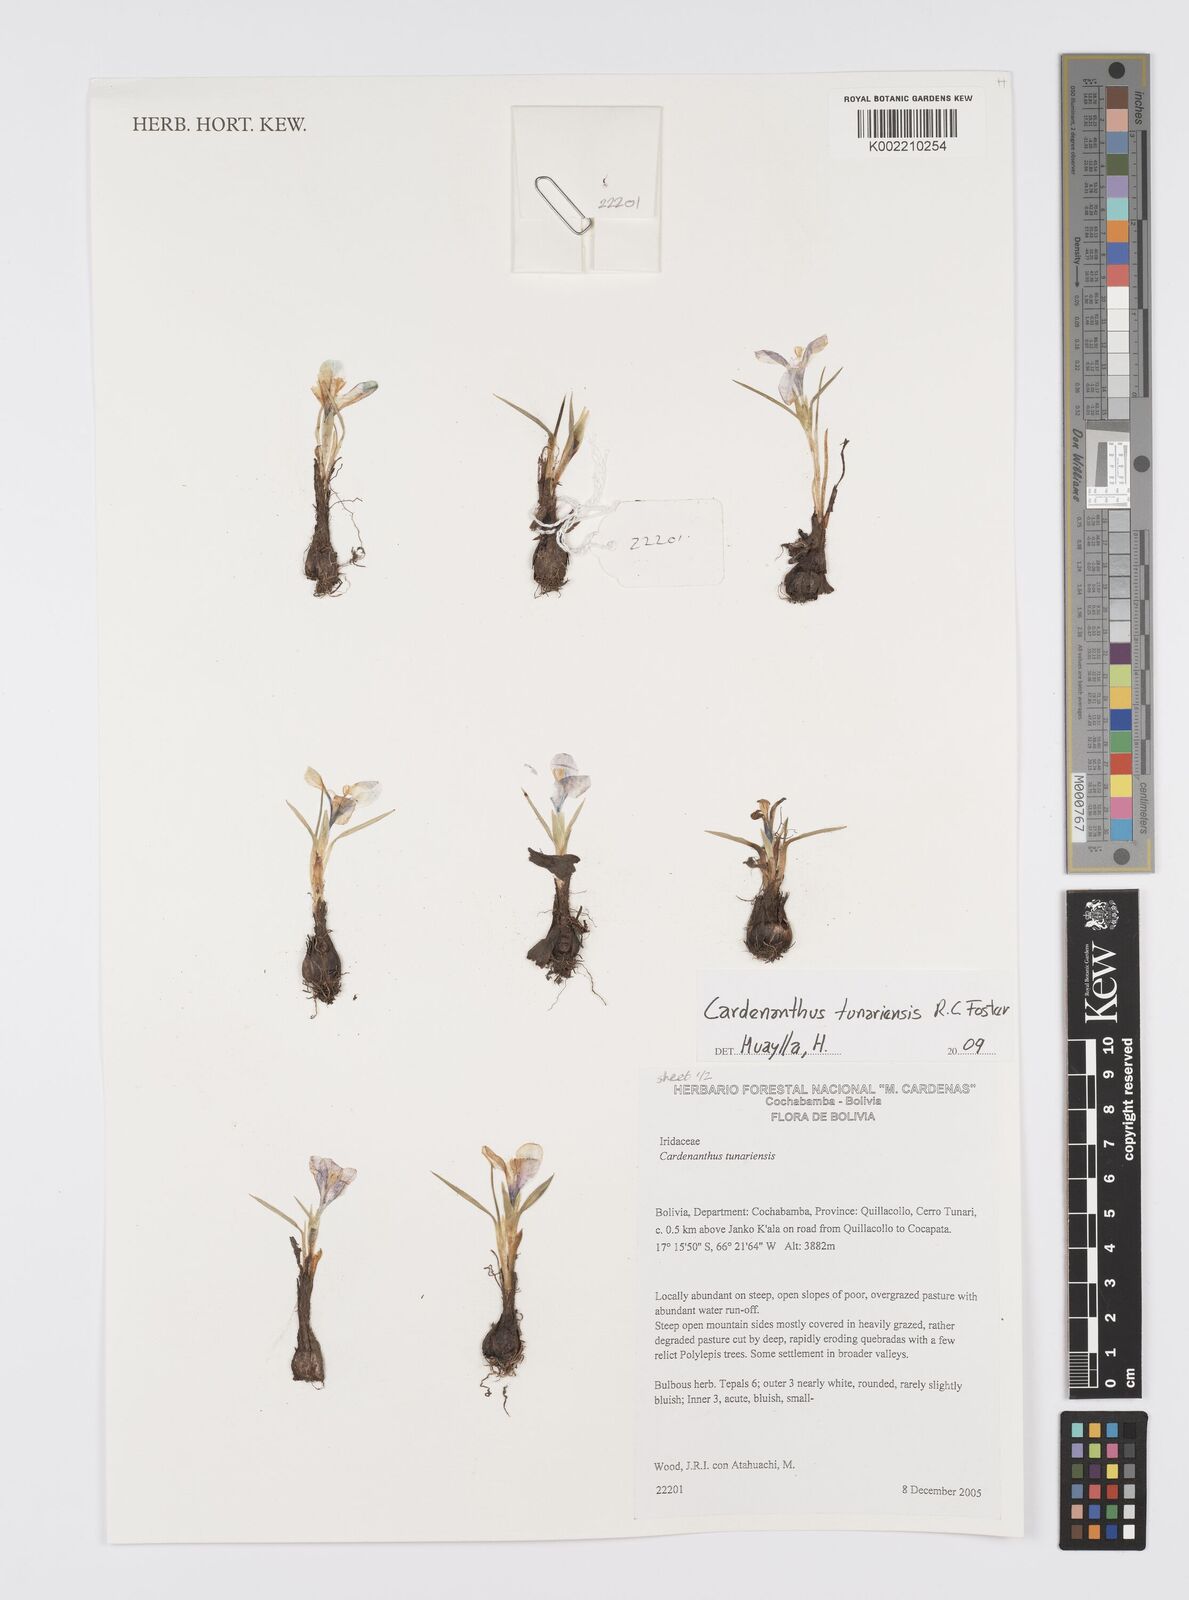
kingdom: Plantae
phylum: Tracheophyta
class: Liliopsida
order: Asparagales
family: Iridaceae
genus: Mastigostyla
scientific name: Mastigostyla
